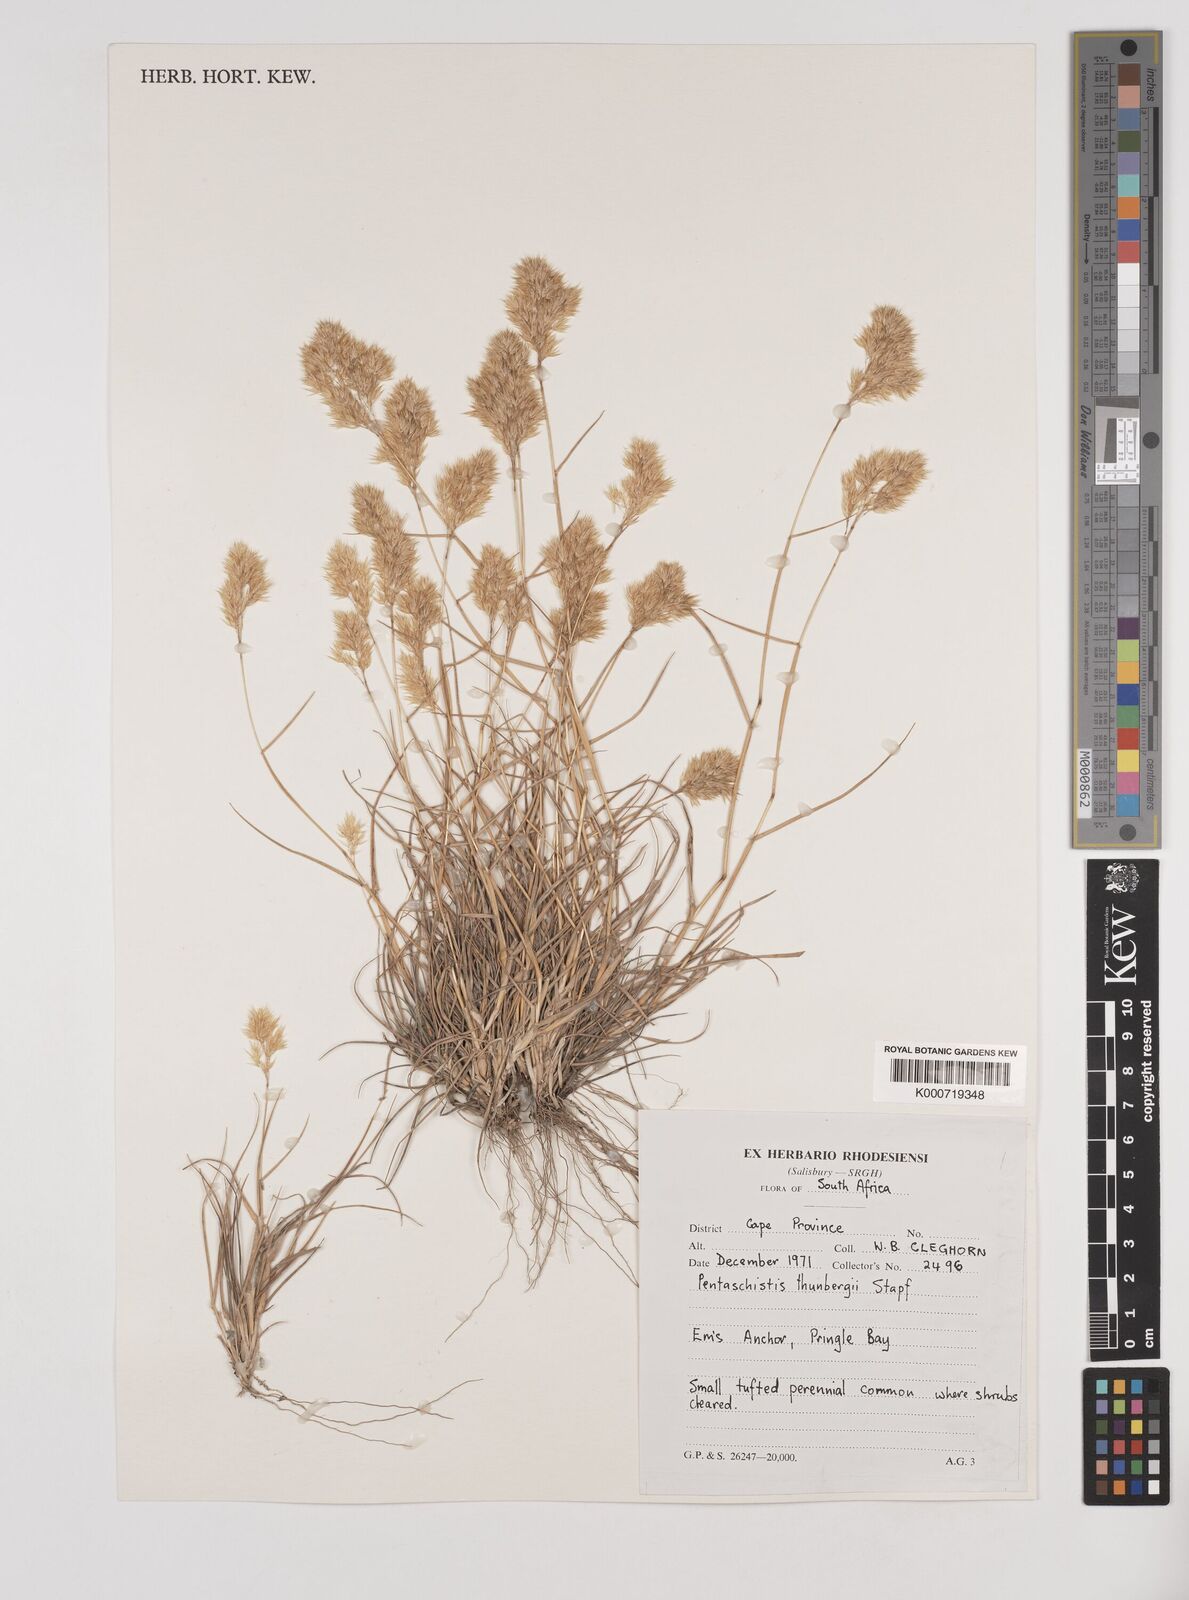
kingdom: Plantae
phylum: Tracheophyta
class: Liliopsida
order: Poales
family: Poaceae
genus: Pentameris
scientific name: Pentameris triseta
